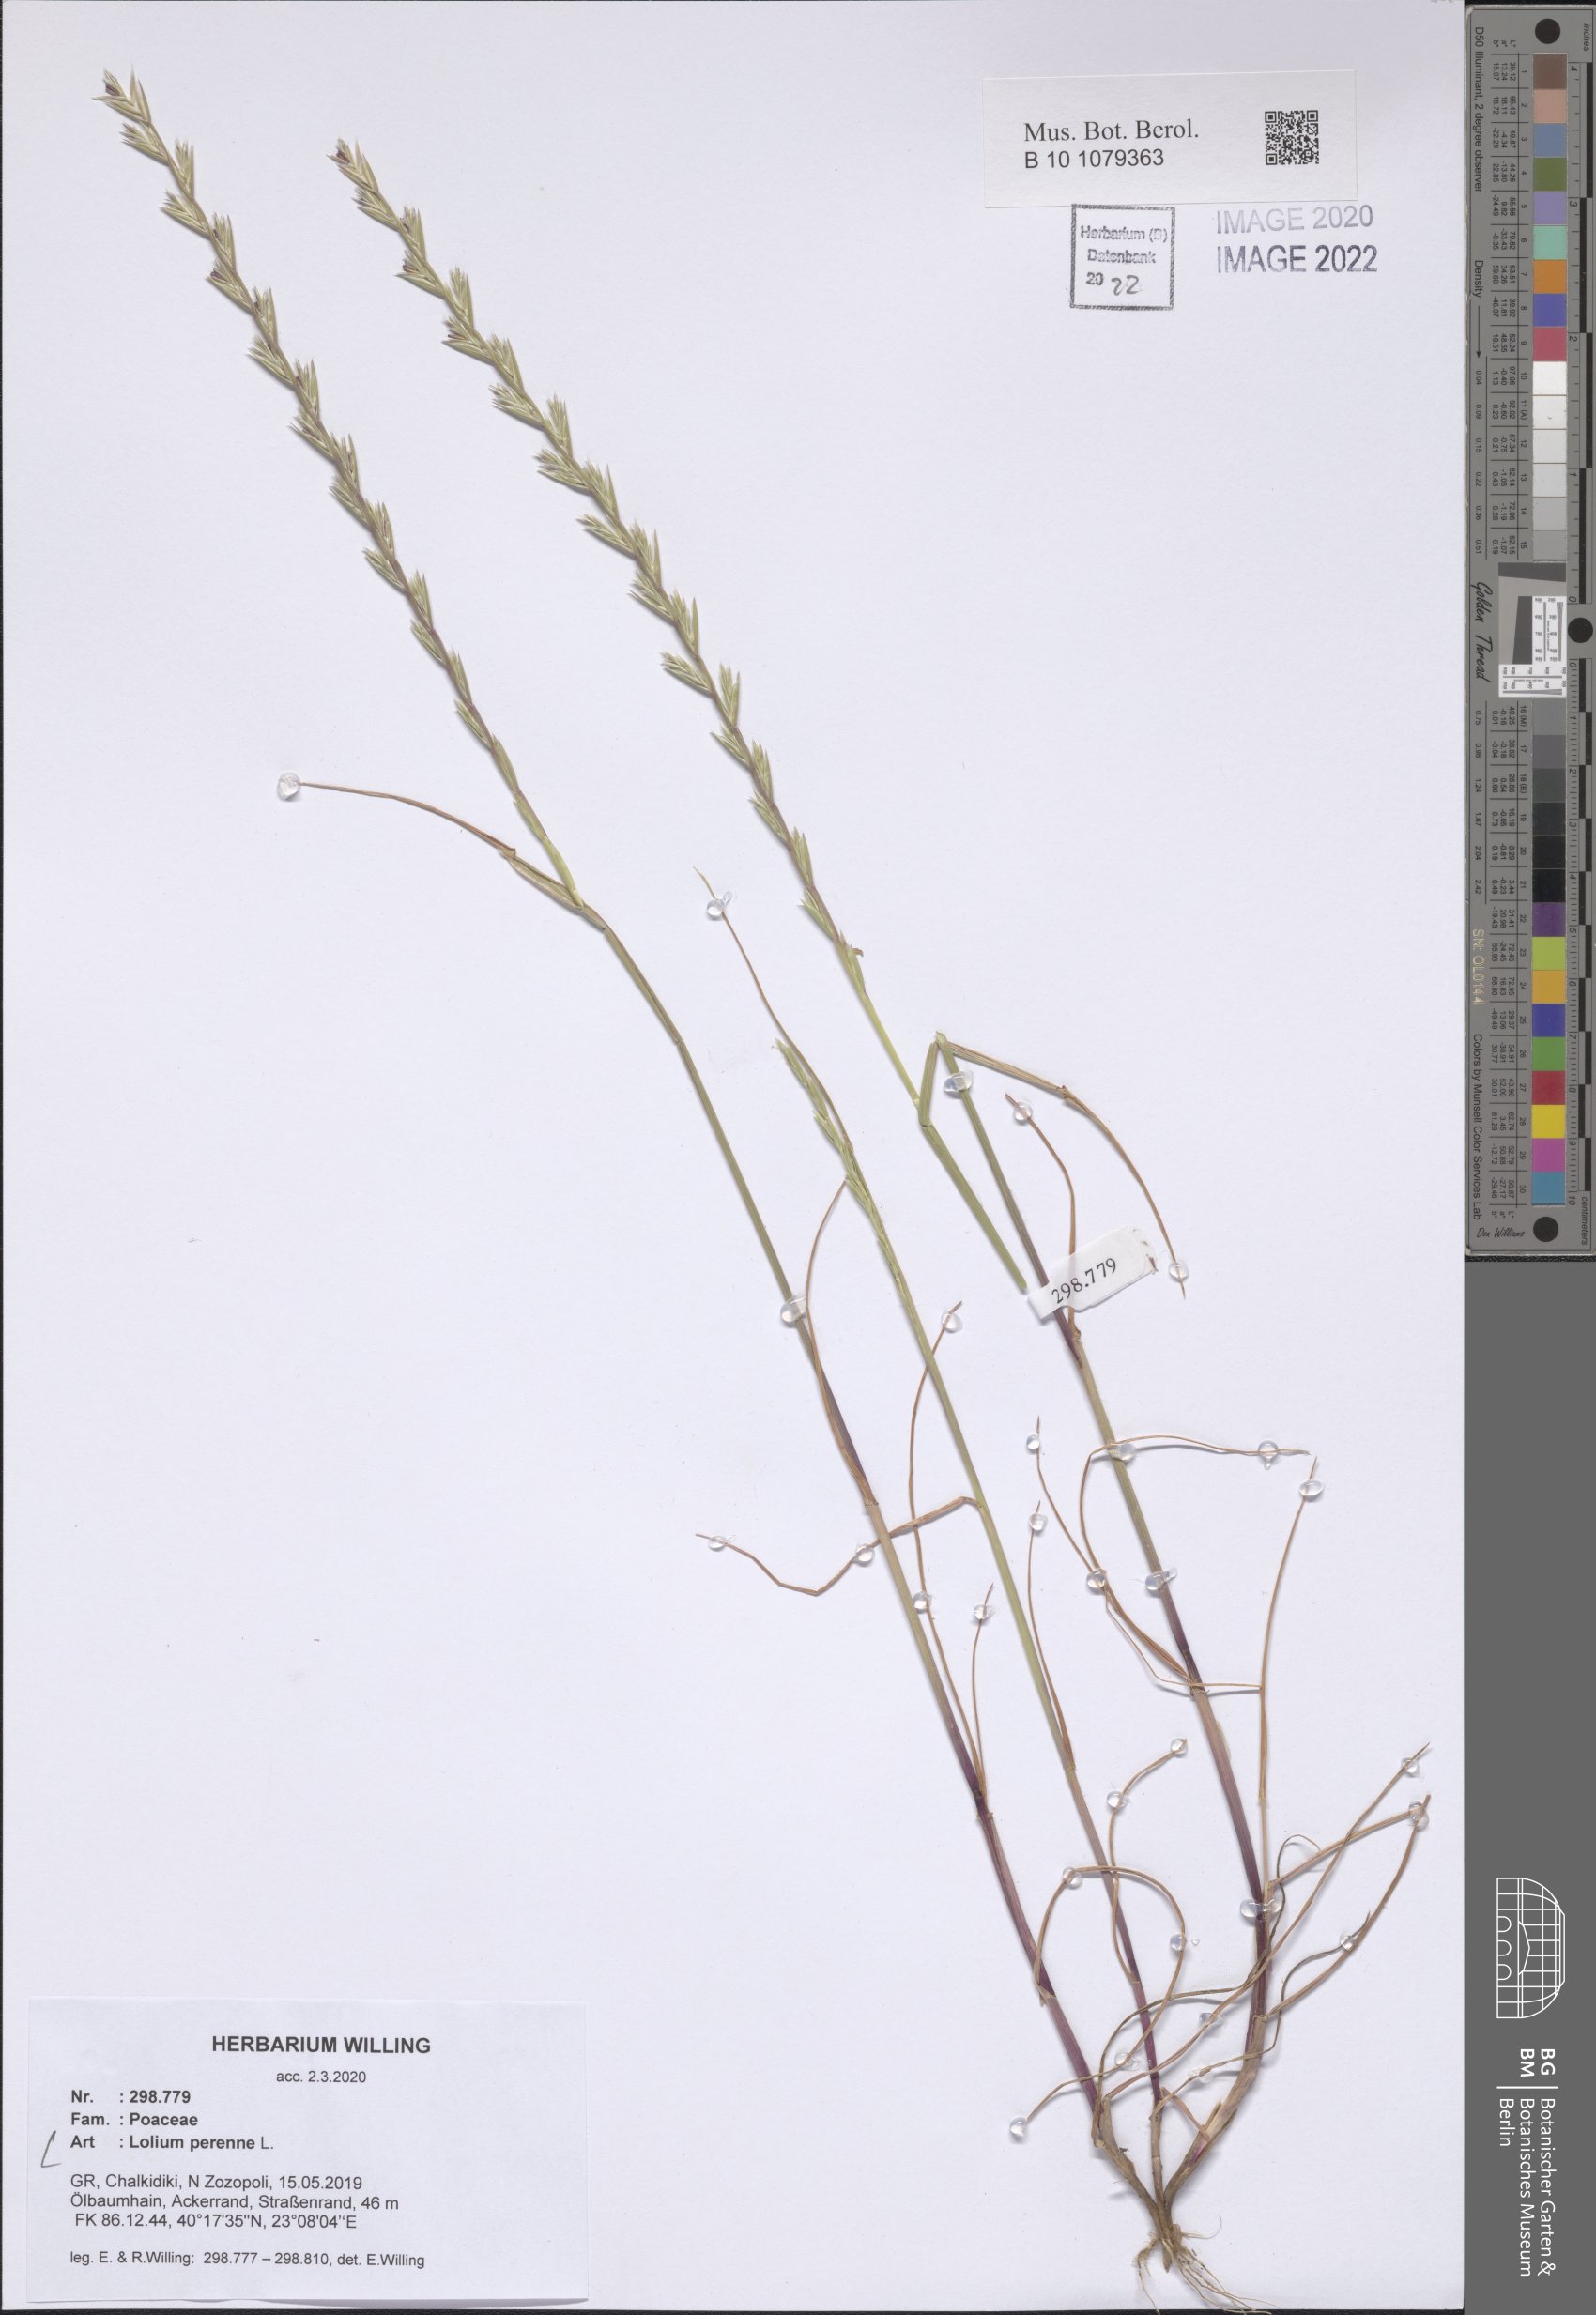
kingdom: Plantae
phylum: Tracheophyta
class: Liliopsida
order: Poales
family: Poaceae
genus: Lolium
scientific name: Lolium perenne
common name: Perennial ryegrass
